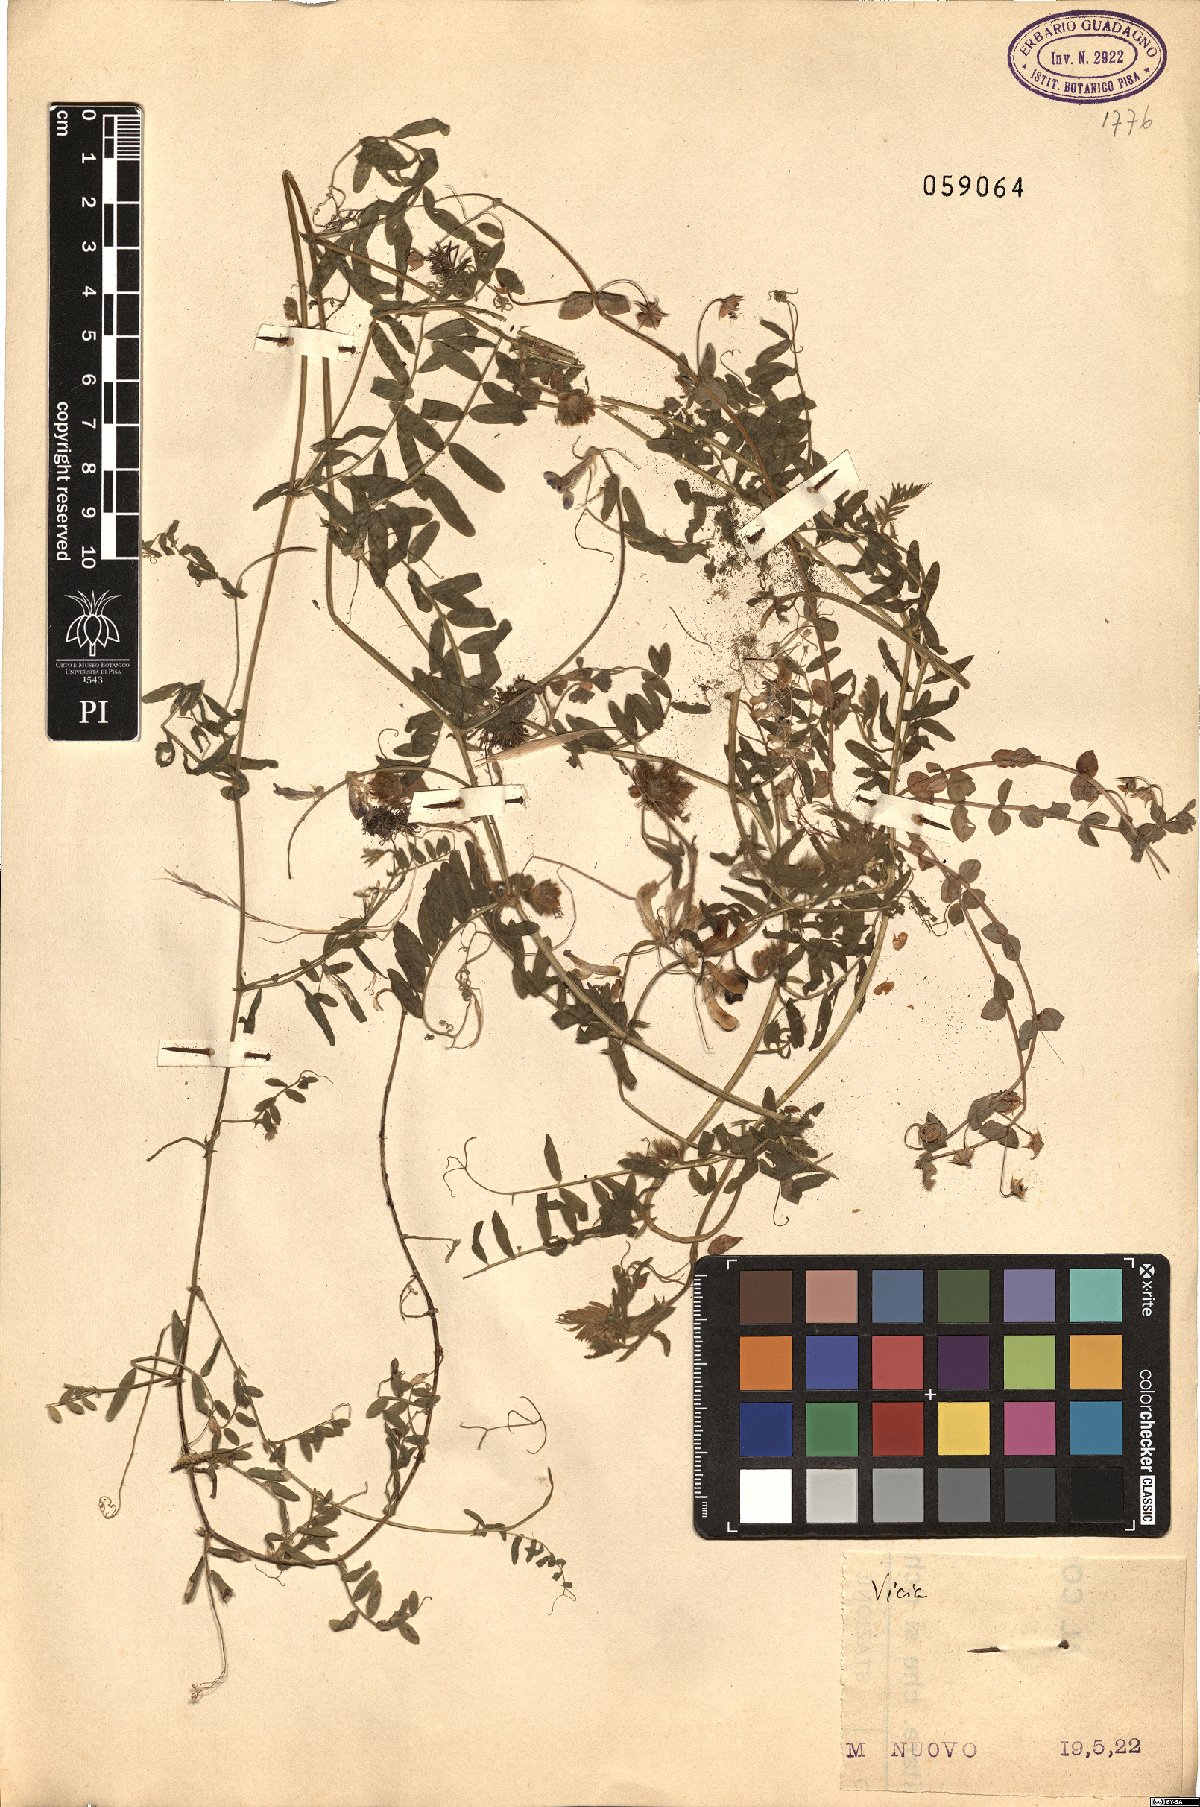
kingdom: Plantae
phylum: Tracheophyta
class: Magnoliopsida
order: Fabales
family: Fabaceae
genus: Vicia
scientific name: Vicia
